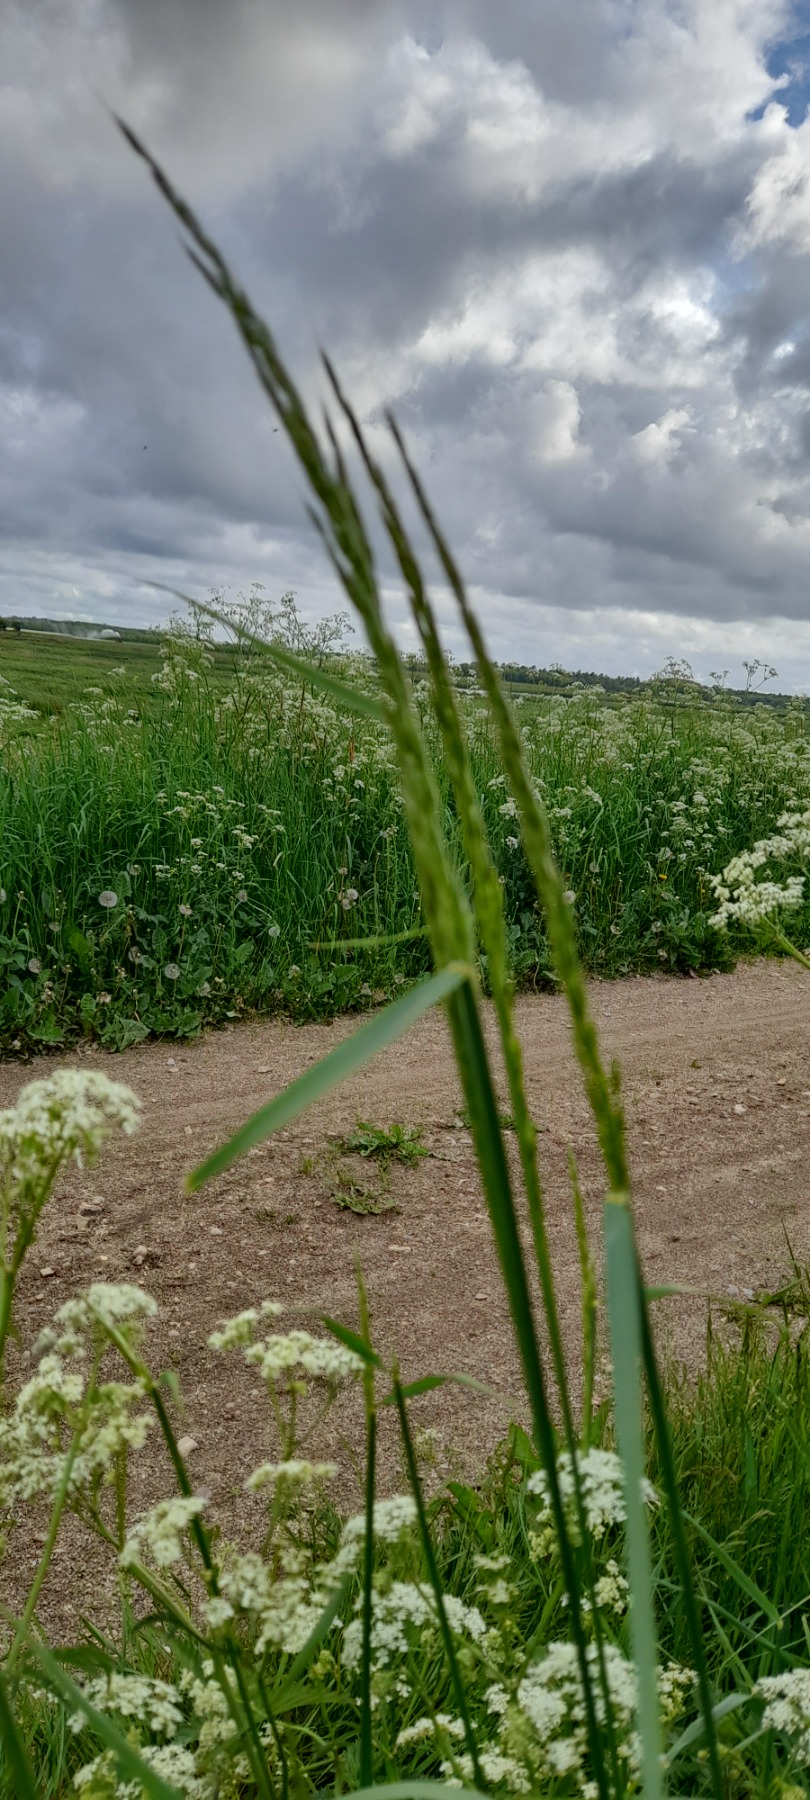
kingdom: Plantae
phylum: Tracheophyta
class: Liliopsida
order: Poales
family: Poaceae
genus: Arrhenatherum
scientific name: Arrhenatherum elatius
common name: Draphavre
